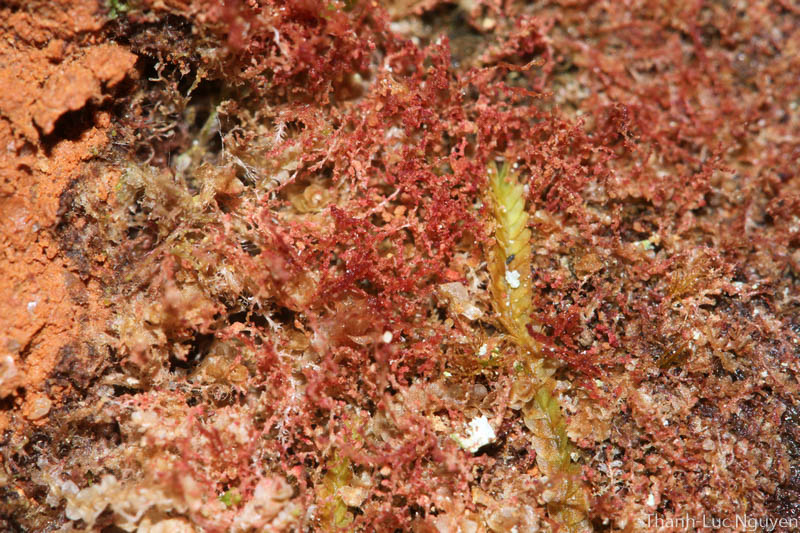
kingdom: Plantae
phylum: Marchantiophyta
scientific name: Marchantiophyta
